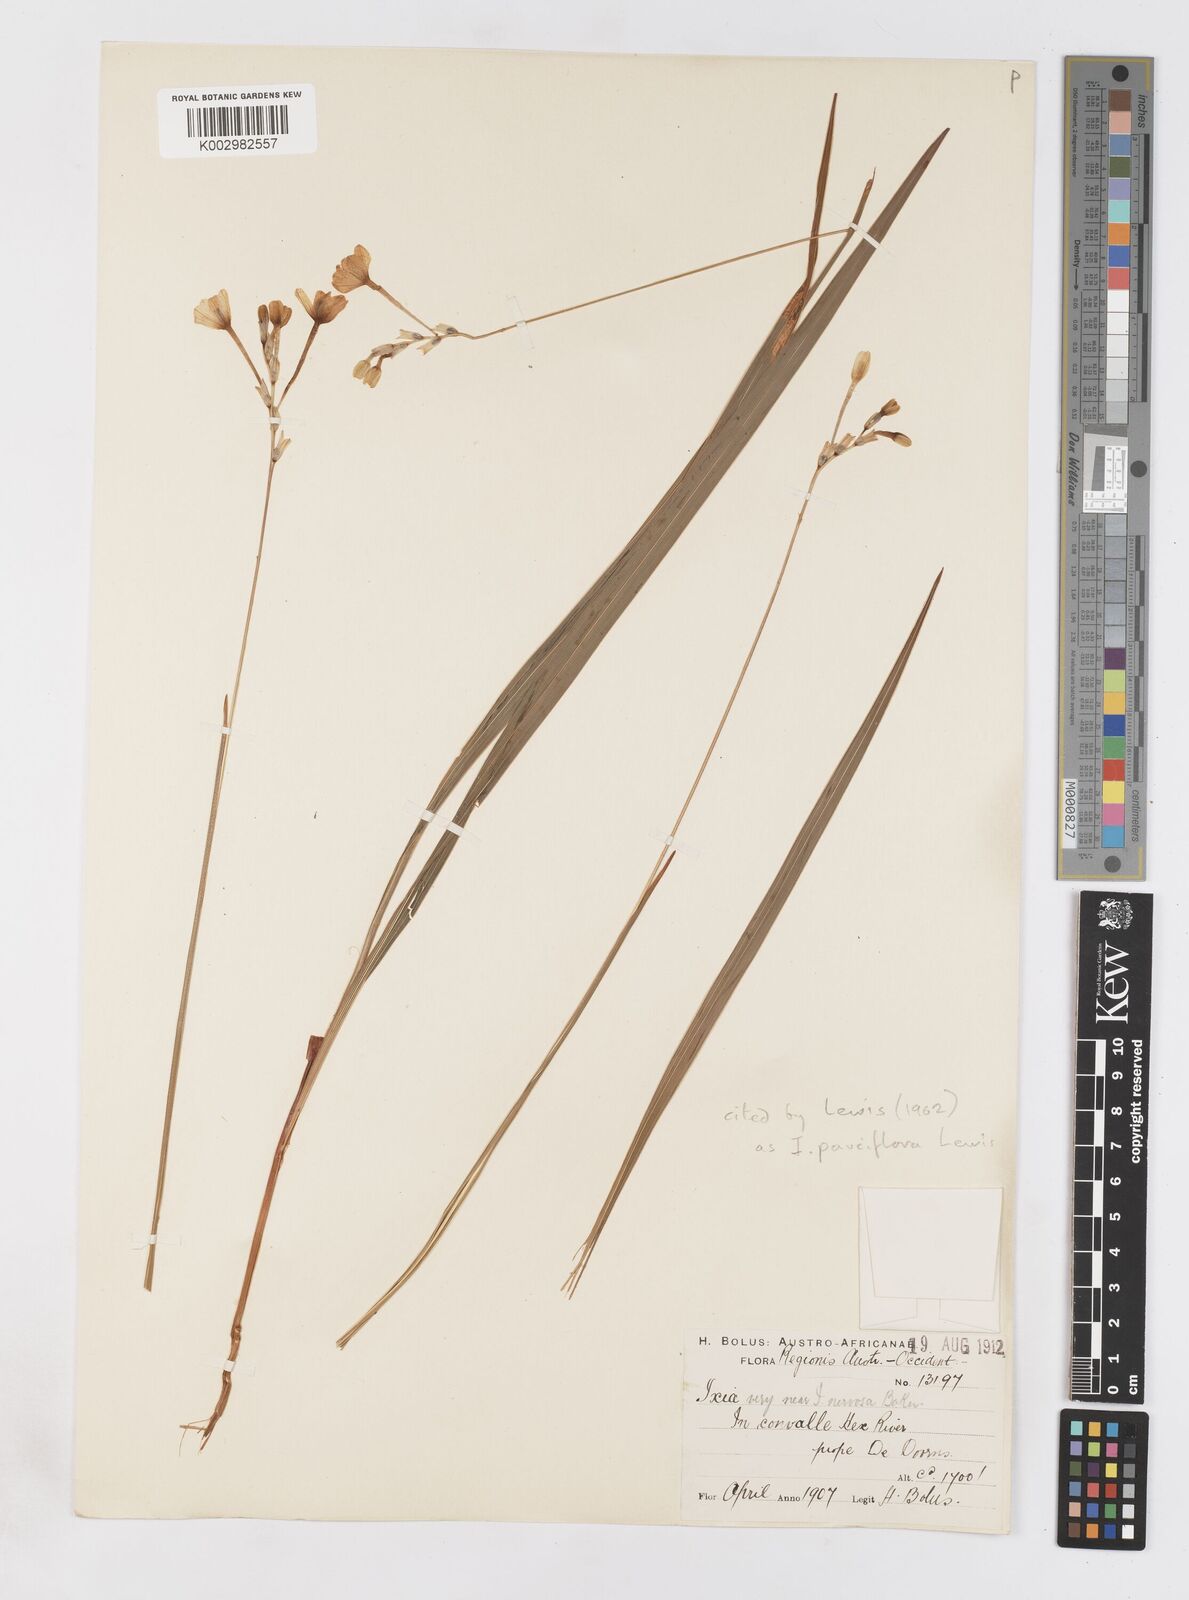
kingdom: Plantae
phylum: Tracheophyta
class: Liliopsida
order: Asparagales
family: Iridaceae
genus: Ixia
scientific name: Ixia pauciflora
